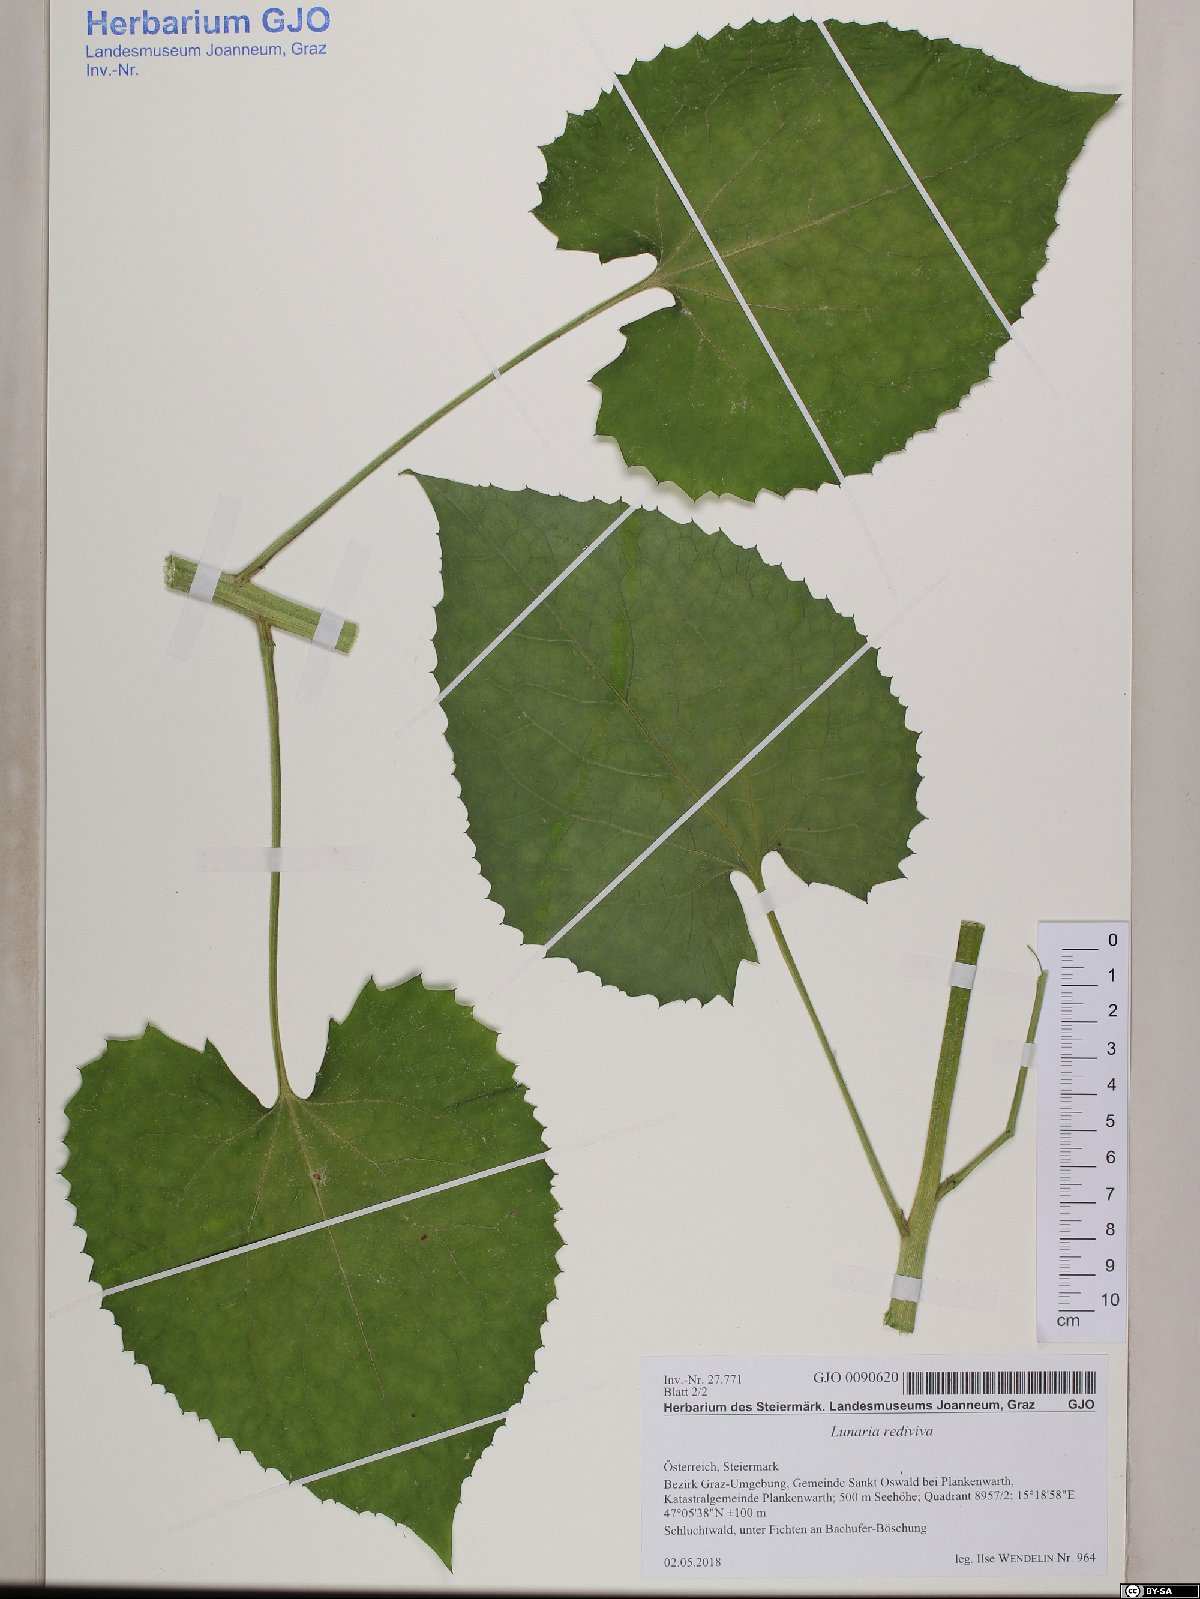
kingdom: Plantae
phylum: Tracheophyta
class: Magnoliopsida
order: Brassicales
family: Brassicaceae
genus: Lunaria
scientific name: Lunaria rediviva
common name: Perennial honesty
